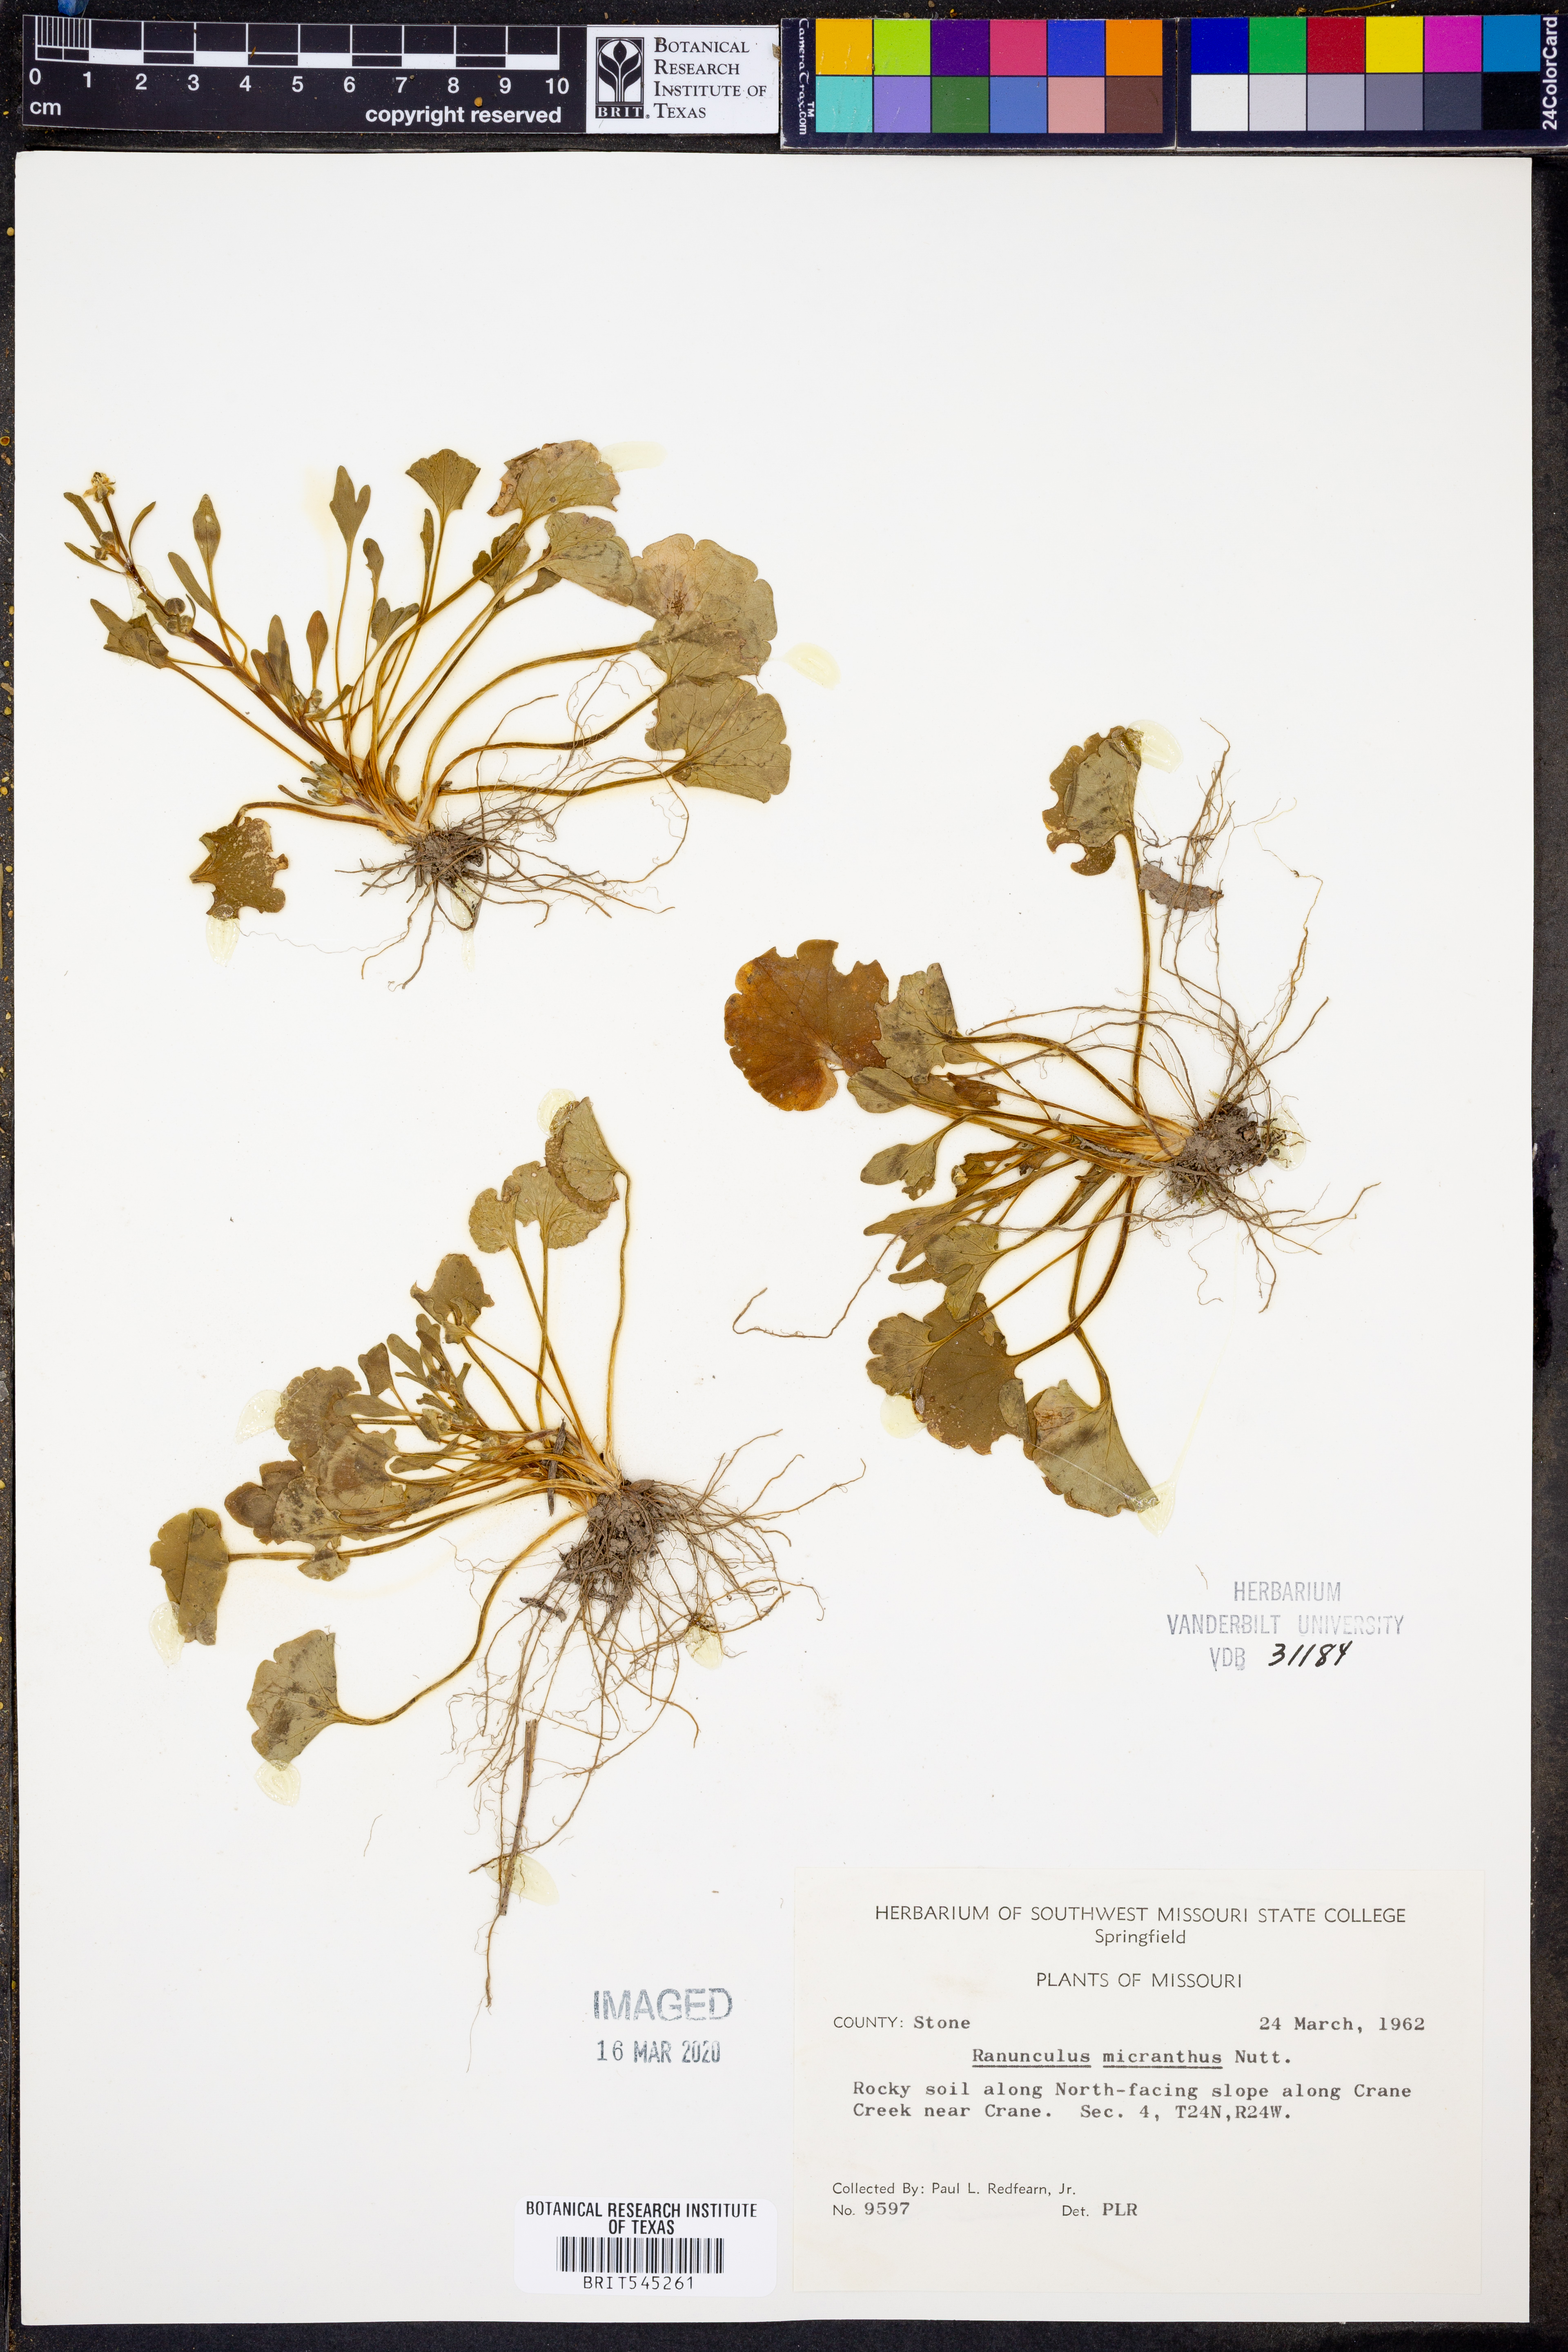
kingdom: Plantae
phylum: Tracheophyta
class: Magnoliopsida
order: Ranunculales
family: Ranunculaceae
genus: Ranunculus
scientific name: Ranunculus micranthus
